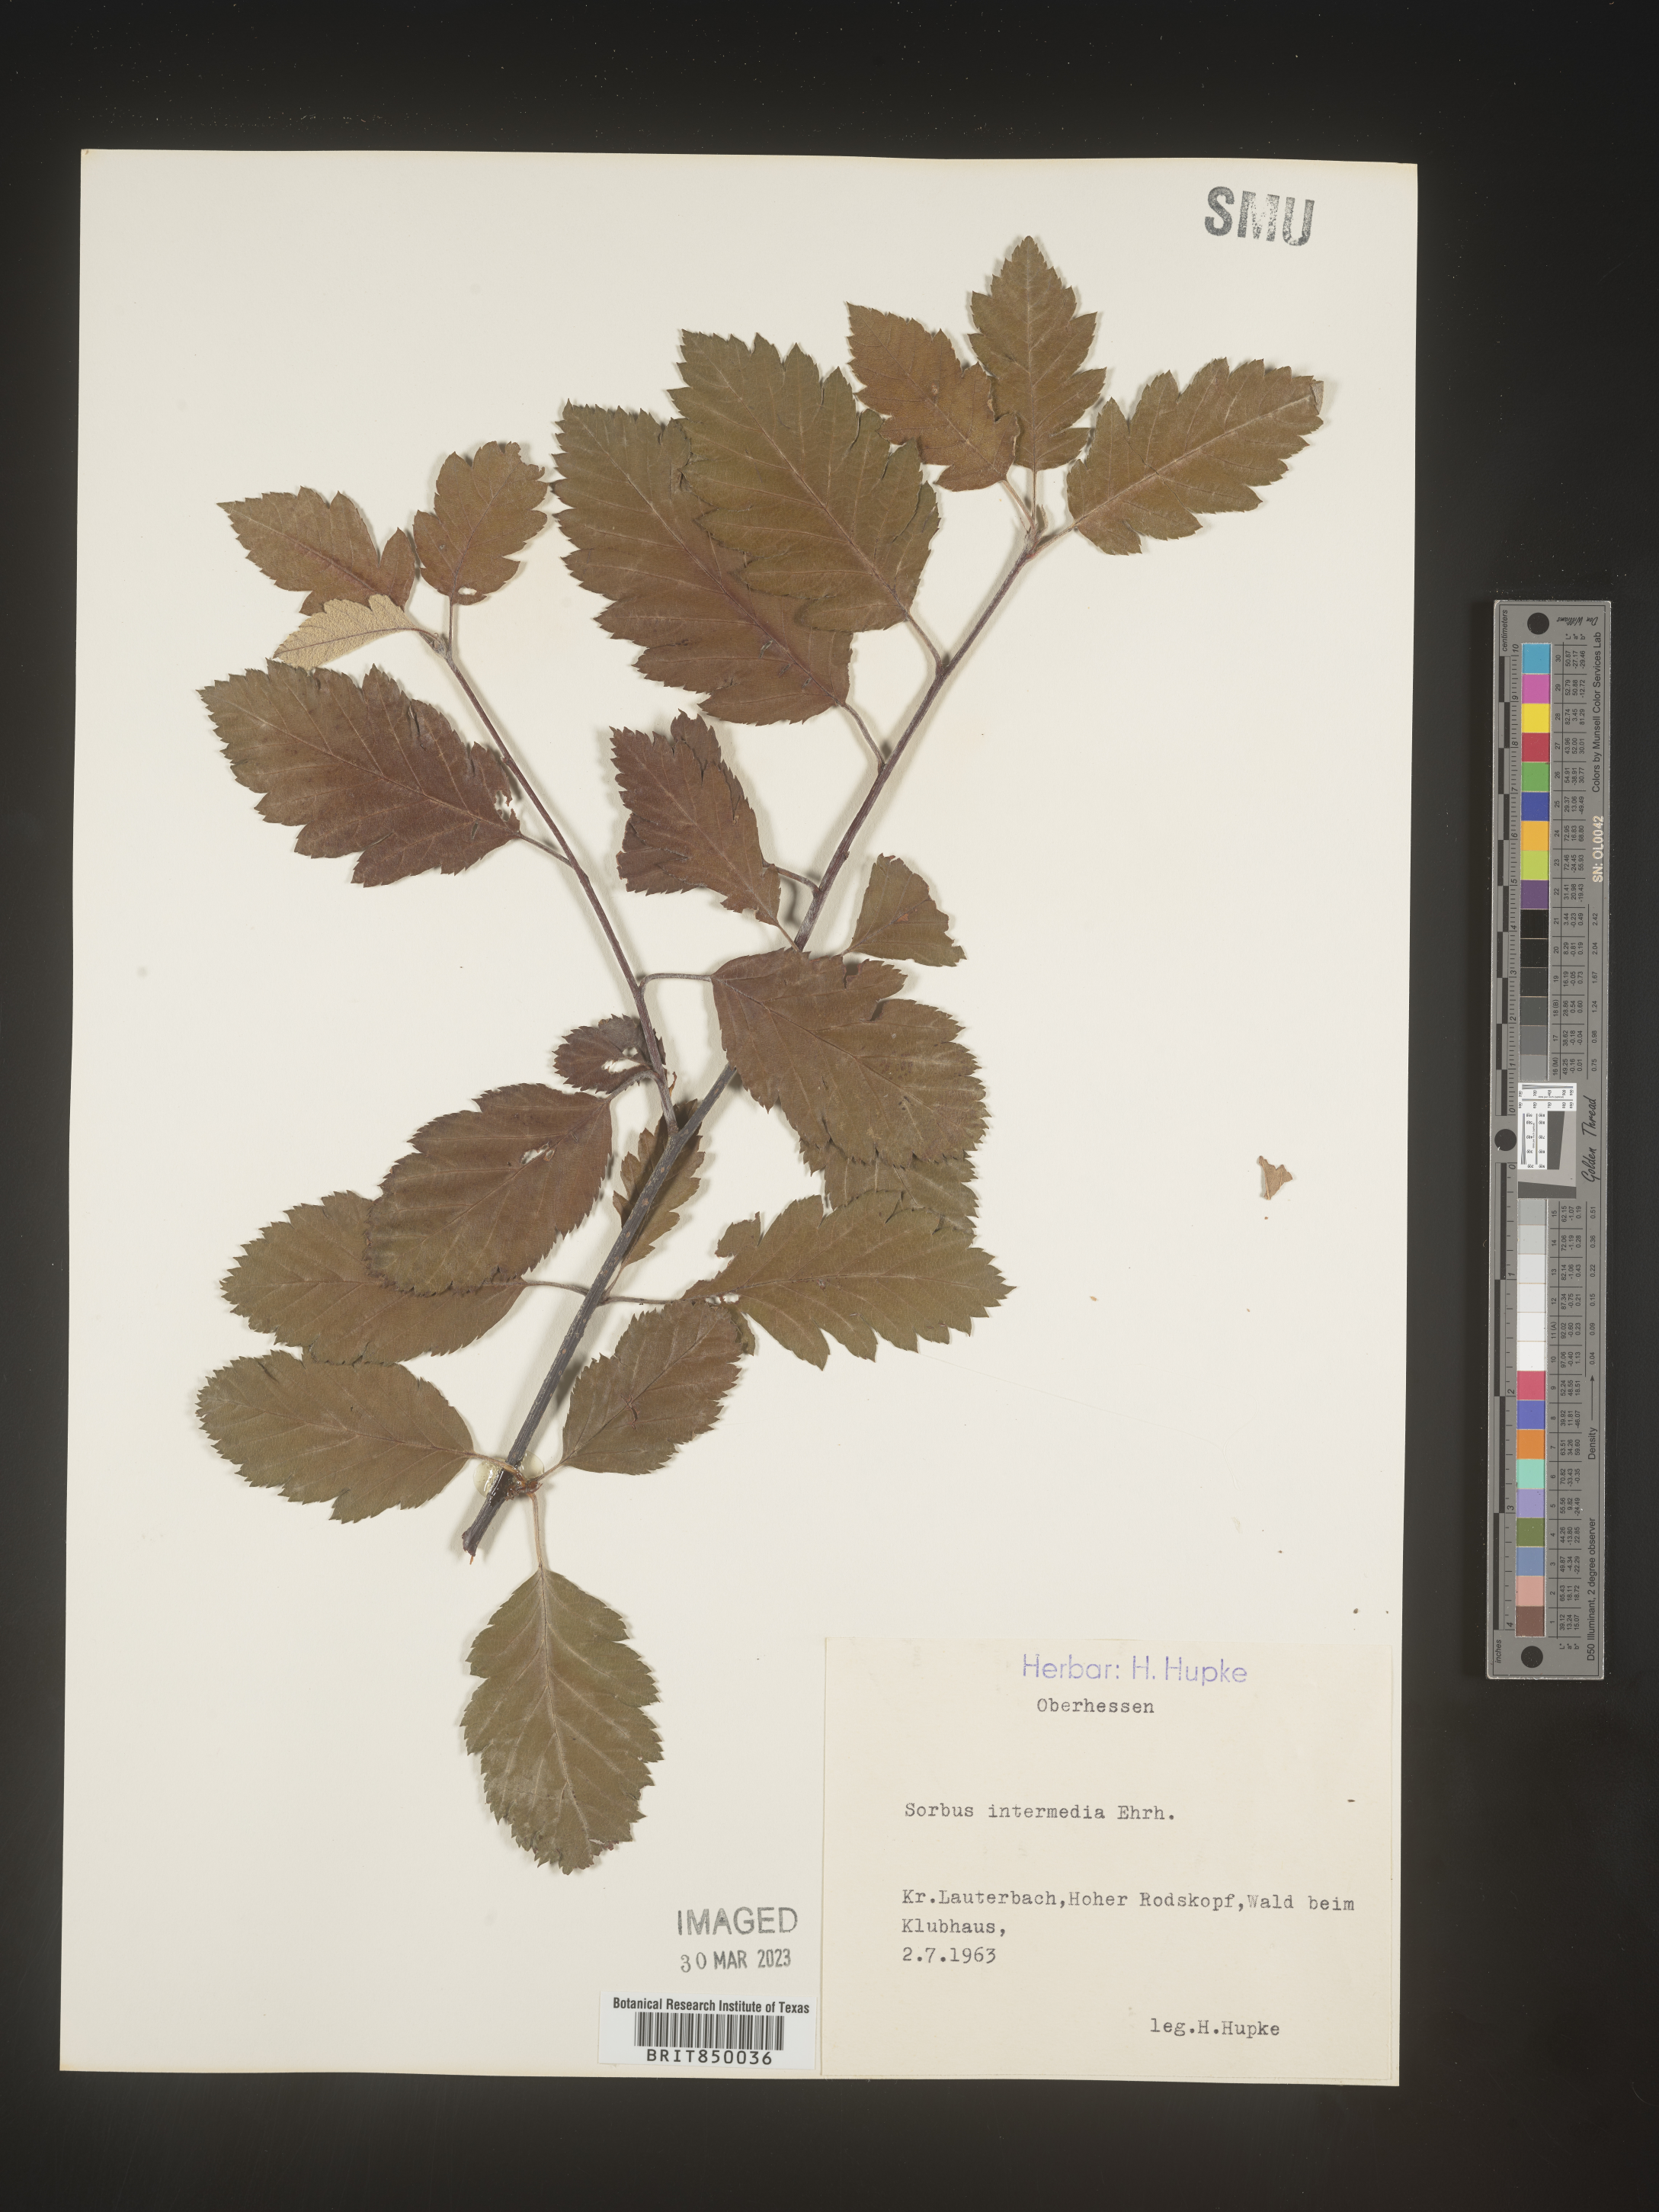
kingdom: Plantae
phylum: Tracheophyta
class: Magnoliopsida
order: Rosales
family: Rosaceae
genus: Sorbus
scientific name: Sorbus
